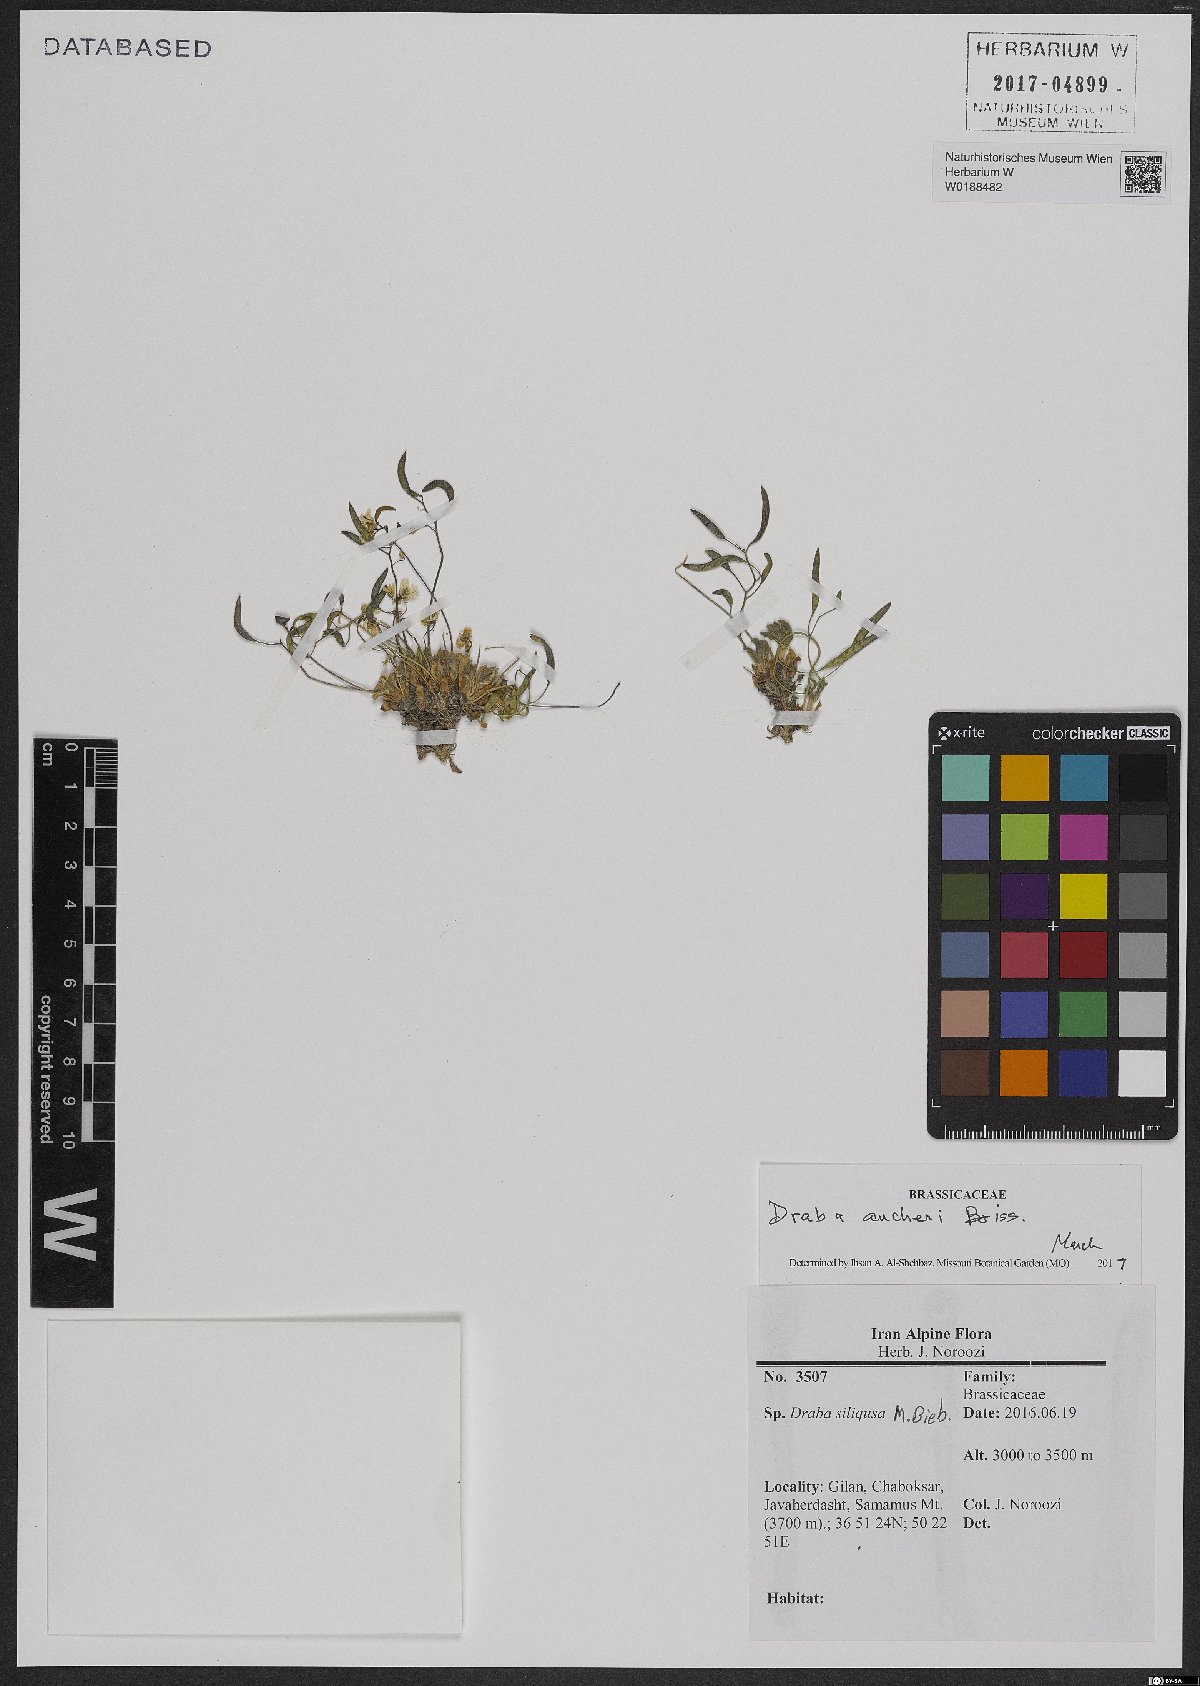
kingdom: Plantae
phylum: Tracheophyta
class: Magnoliopsida
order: Brassicales
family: Brassicaceae
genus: Draba
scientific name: Draba aucheri
